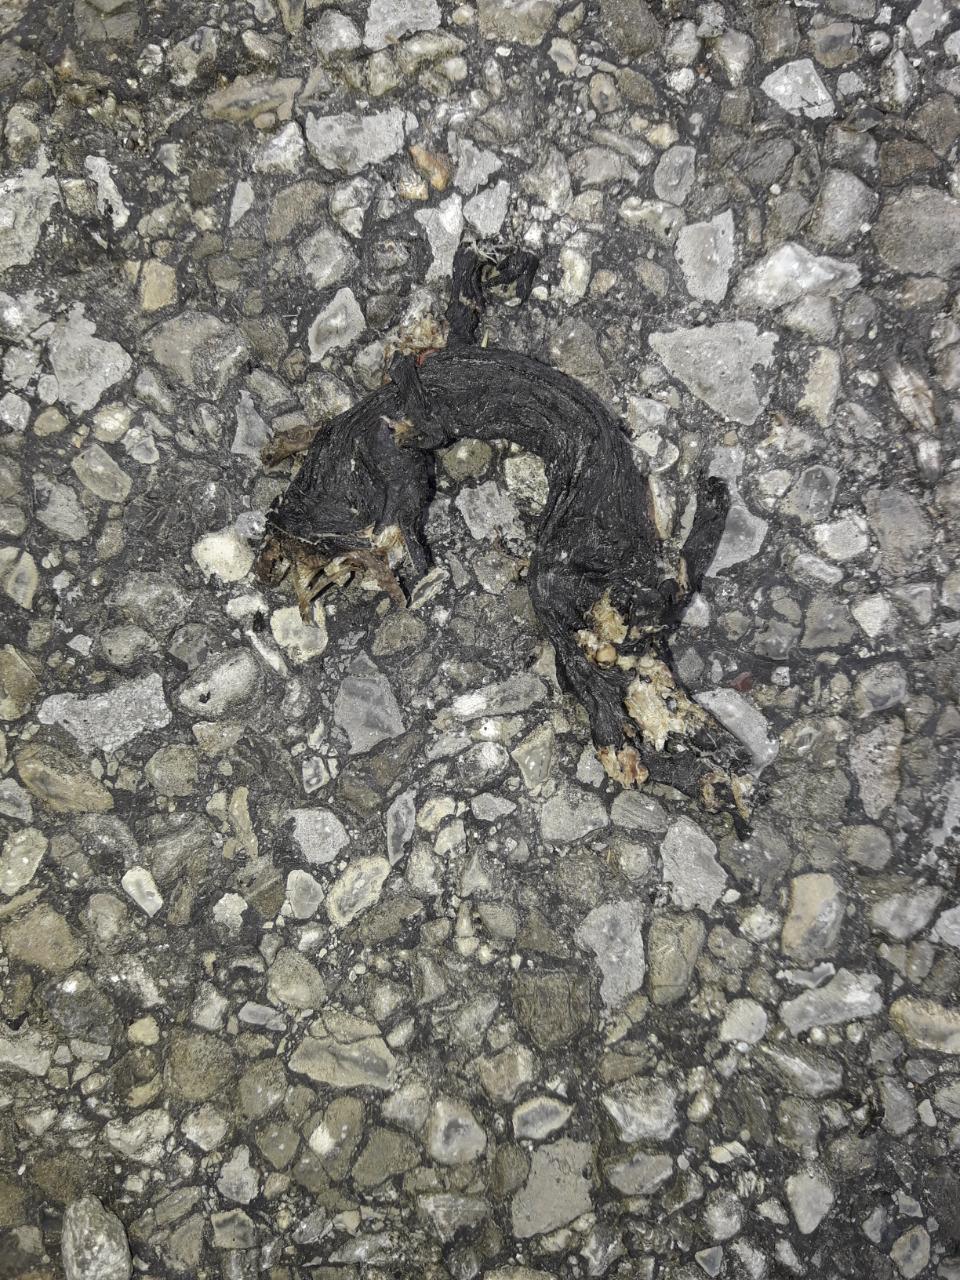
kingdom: Animalia
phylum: Chordata
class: Amphibia
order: Caudata
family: Salamandridae
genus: Salamandra
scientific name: Salamandra atra
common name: Alpine salamander
